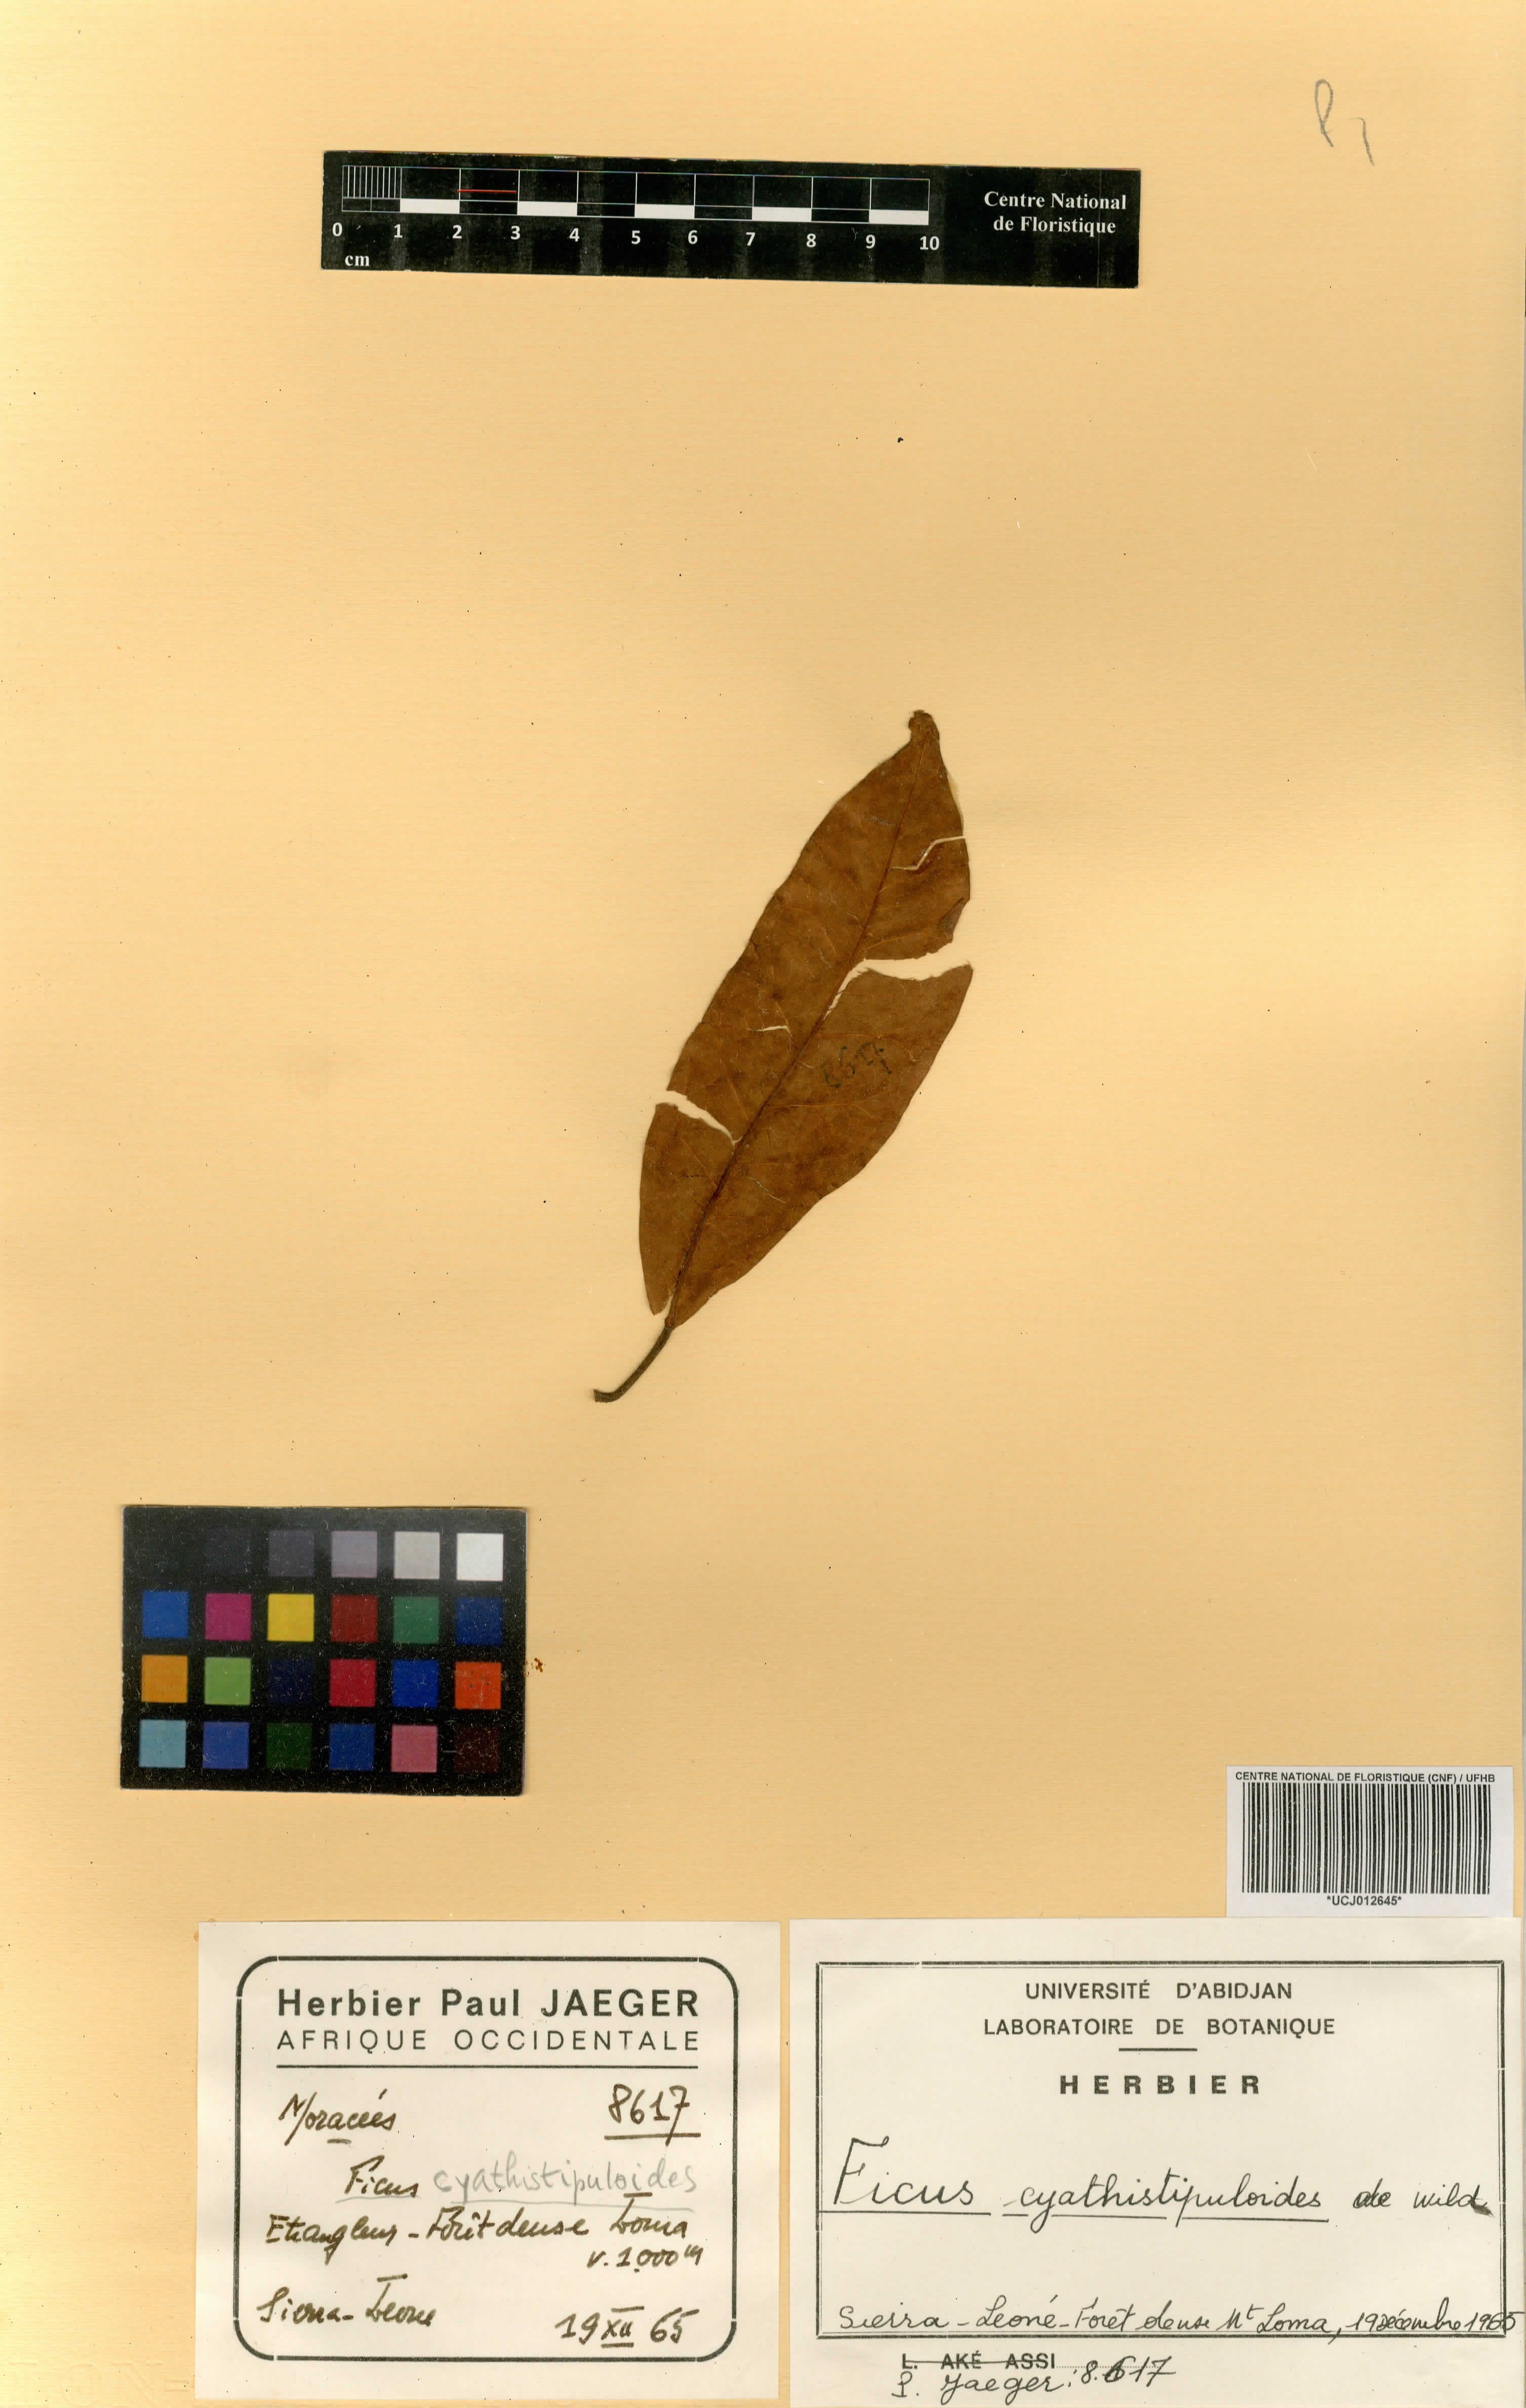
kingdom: Plantae
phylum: Tracheophyta
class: Magnoliopsida
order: Rosales
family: Moraceae
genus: Ficus
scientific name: Ficus cyathistipuloides
